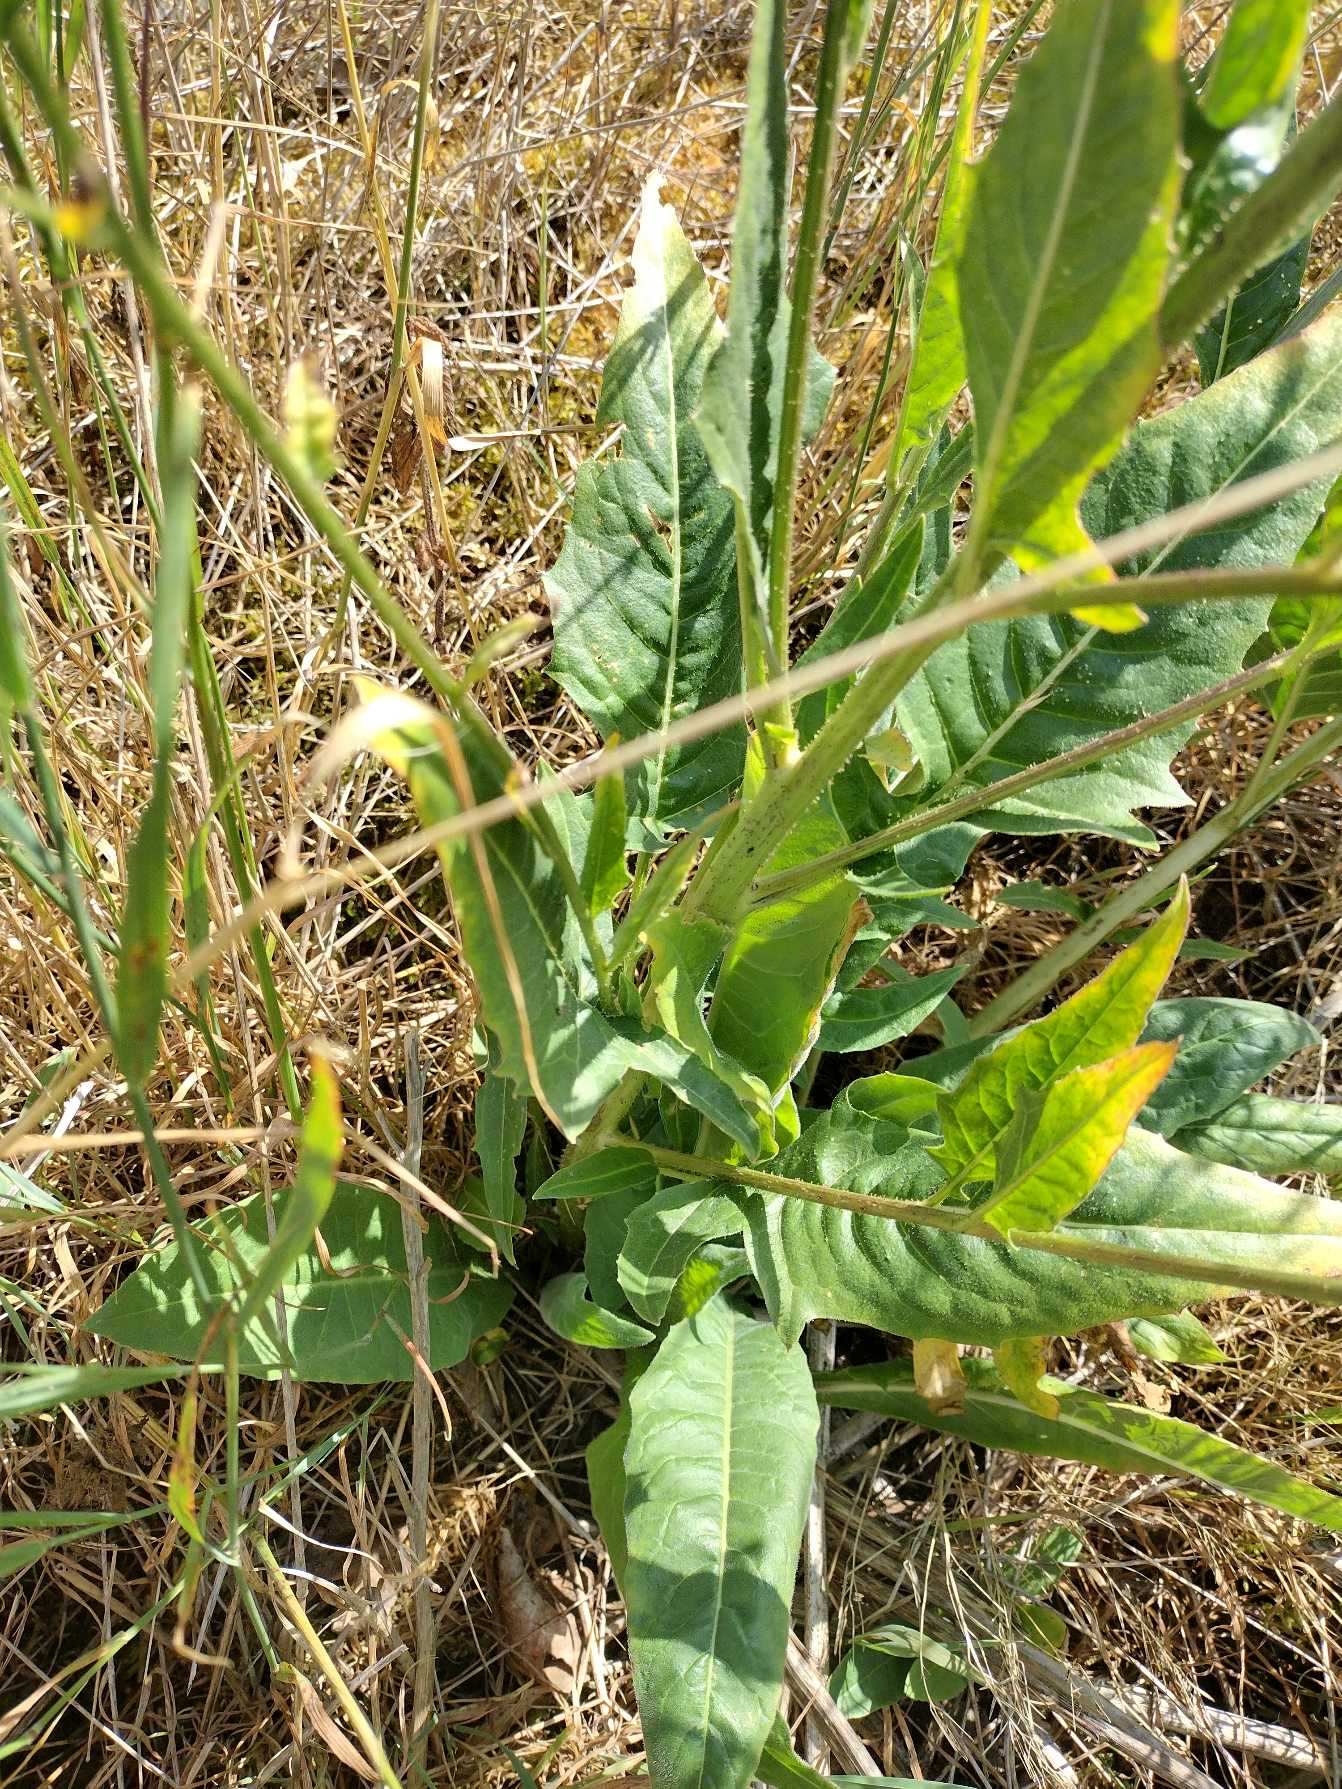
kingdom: Plantae
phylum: Tracheophyta
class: Magnoliopsida
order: Brassicales
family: Brassicaceae
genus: Bunias
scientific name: Bunias orientalis
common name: Takkeklap
